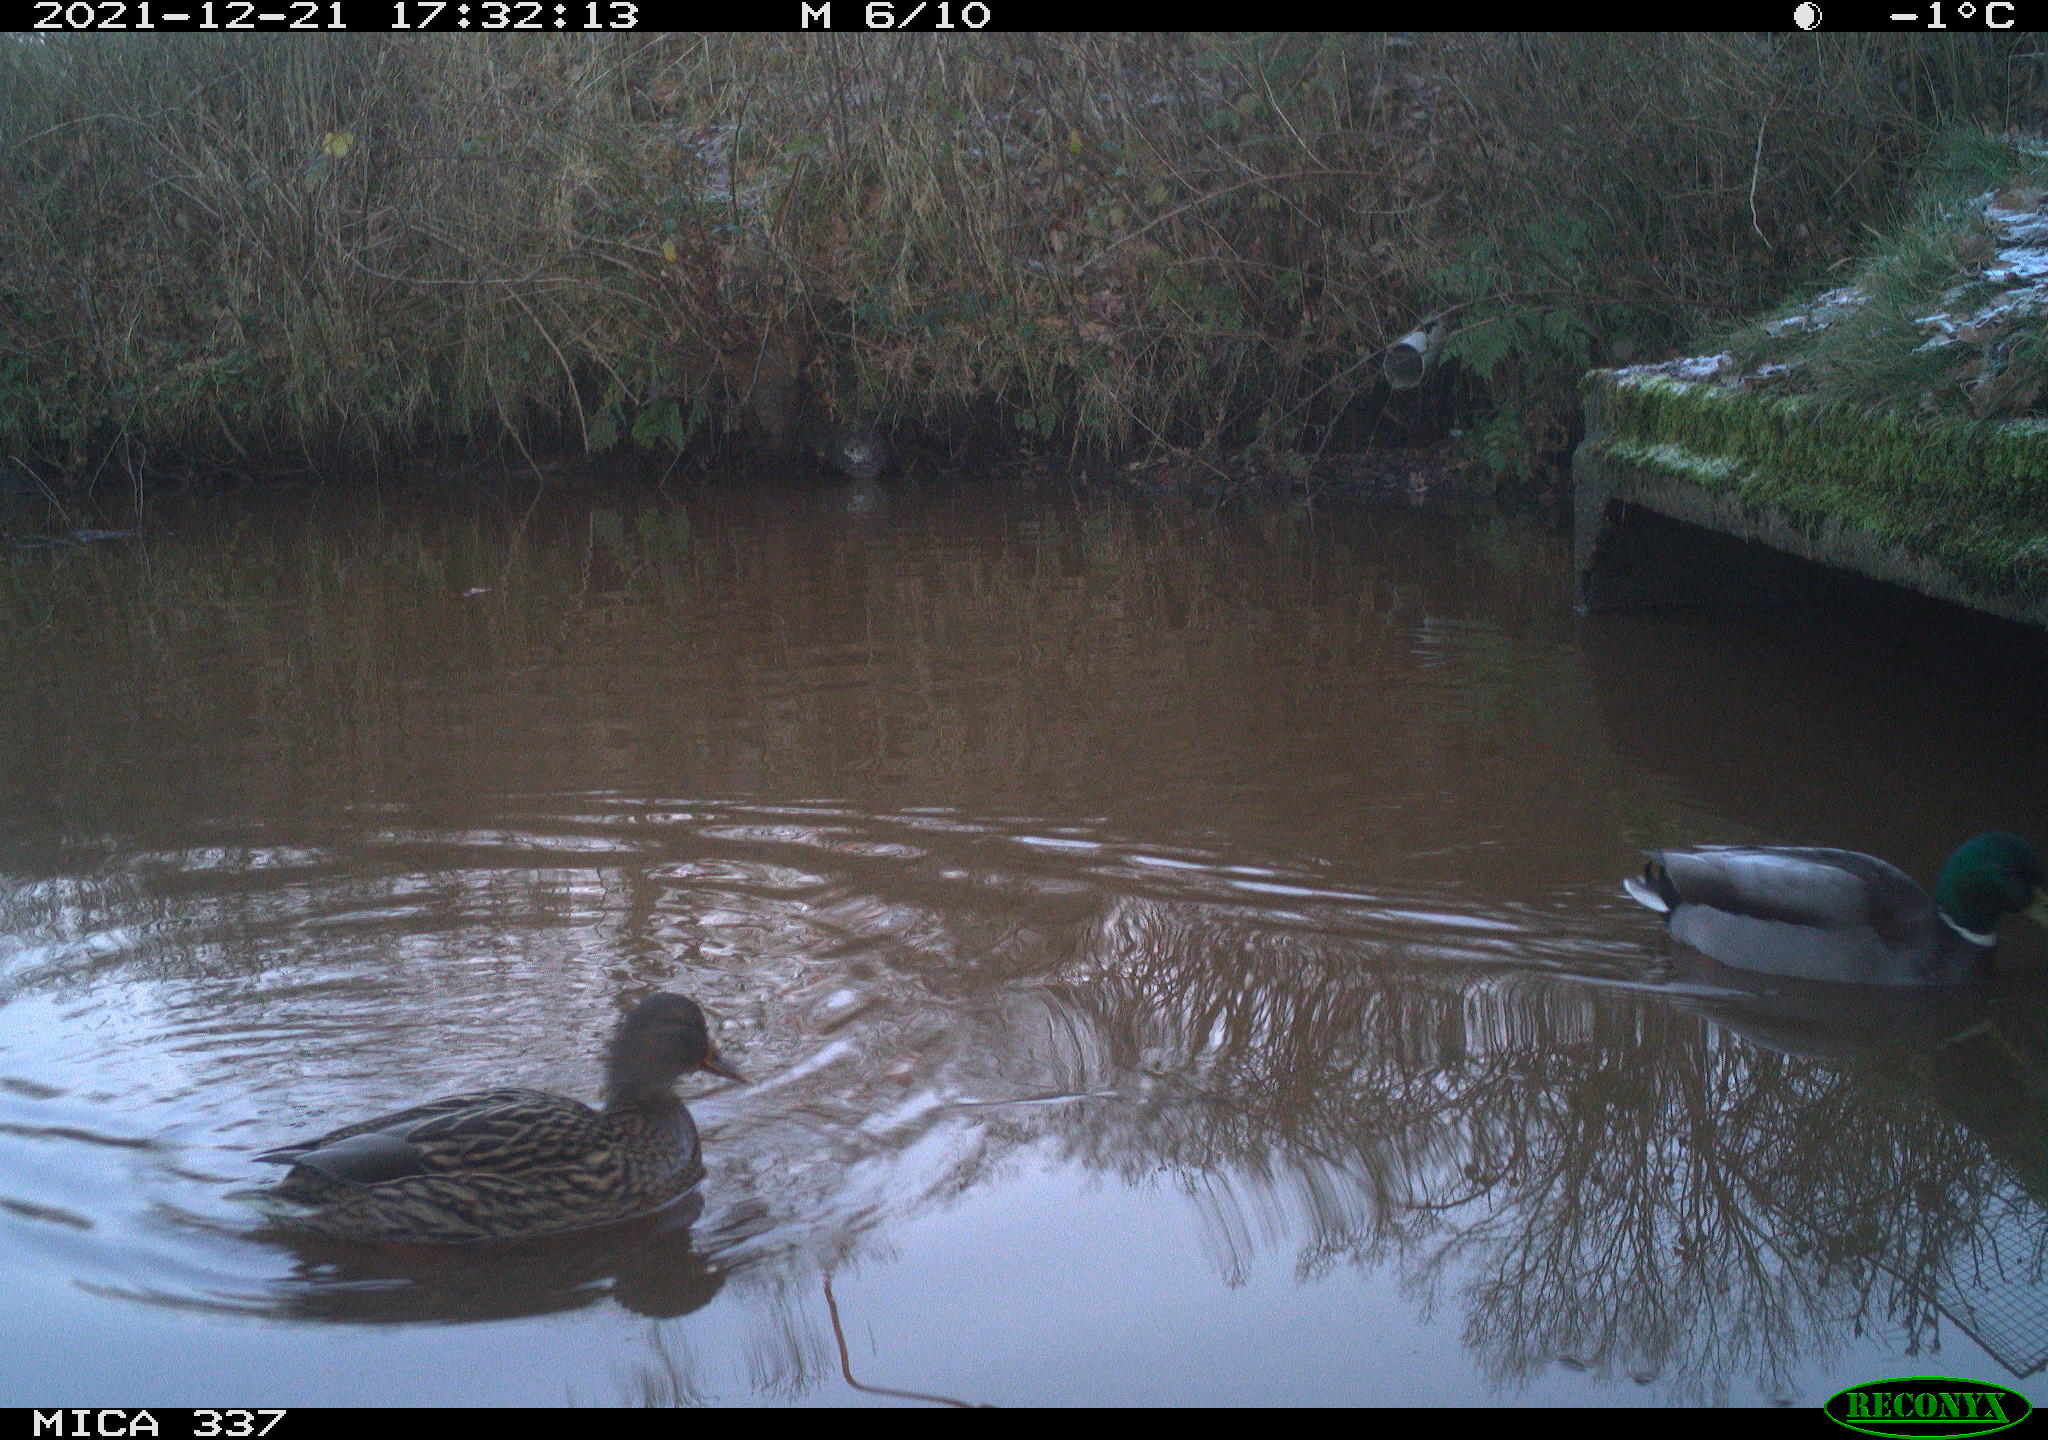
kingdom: Animalia
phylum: Chordata
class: Aves
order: Anseriformes
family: Anatidae
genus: Anas
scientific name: Anas platyrhynchos
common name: Mallard
